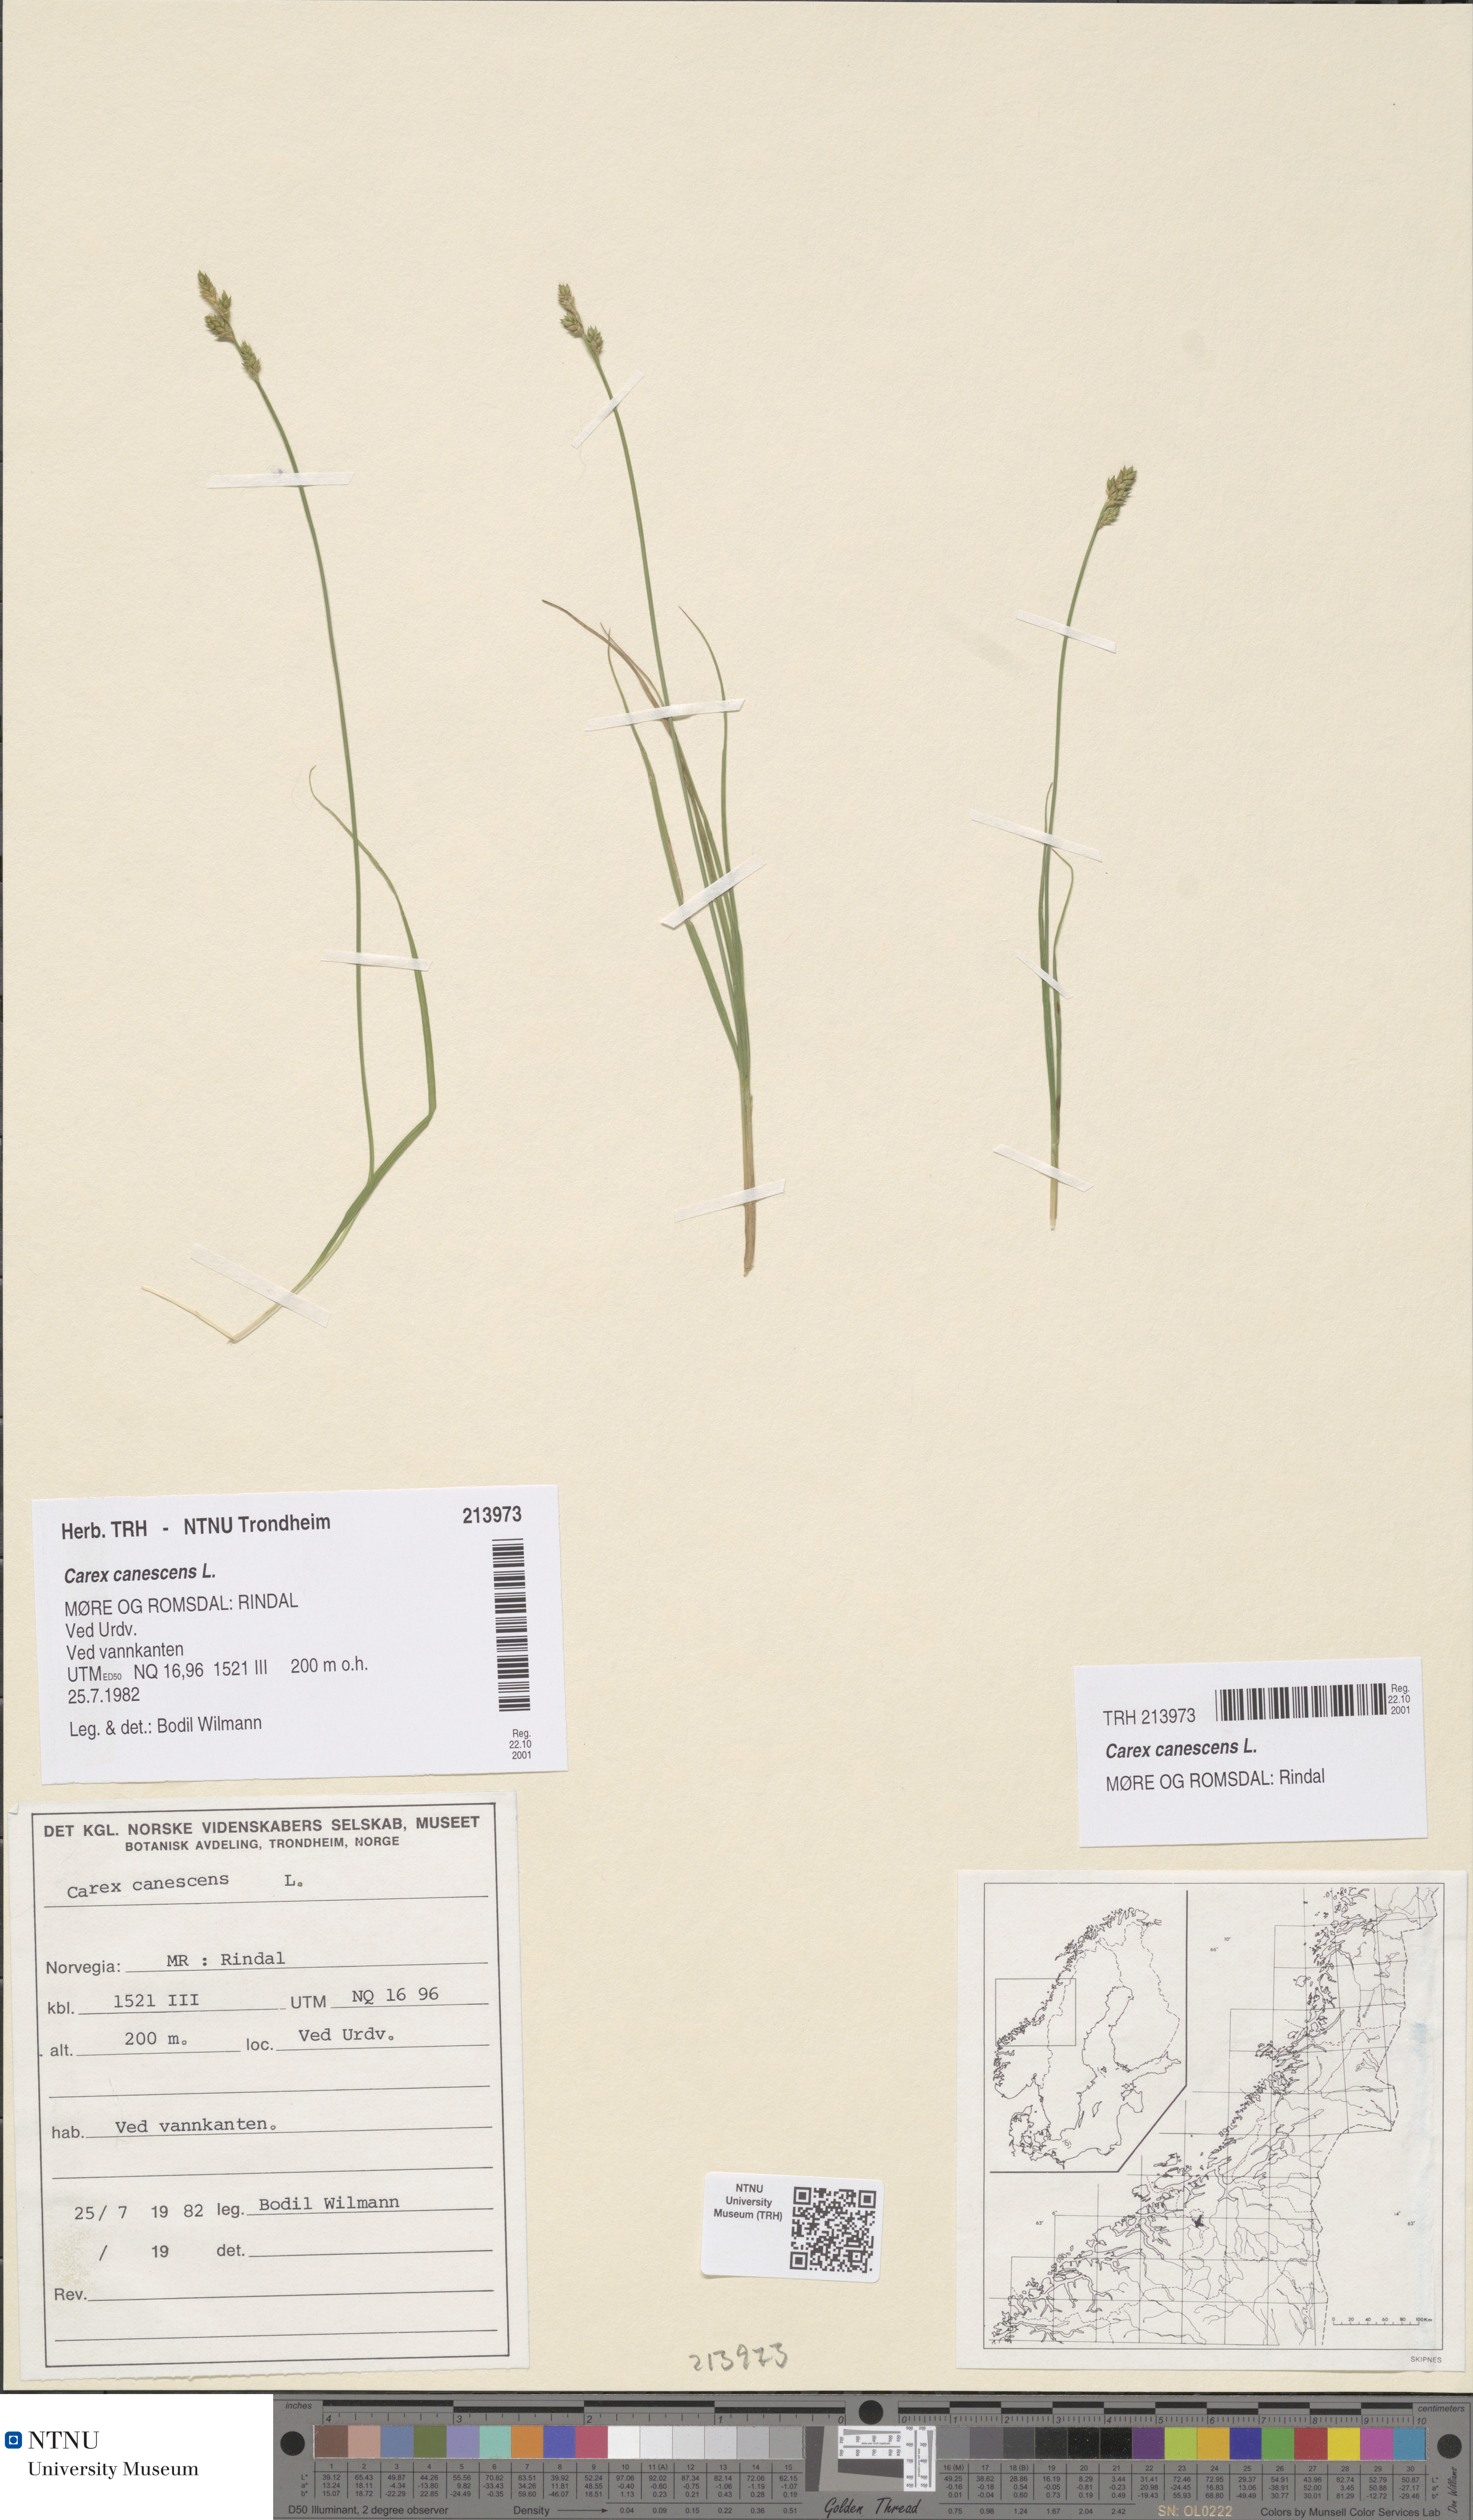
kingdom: Plantae
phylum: Tracheophyta
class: Liliopsida
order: Poales
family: Cyperaceae
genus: Carex
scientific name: Carex canescens
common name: White sedge
